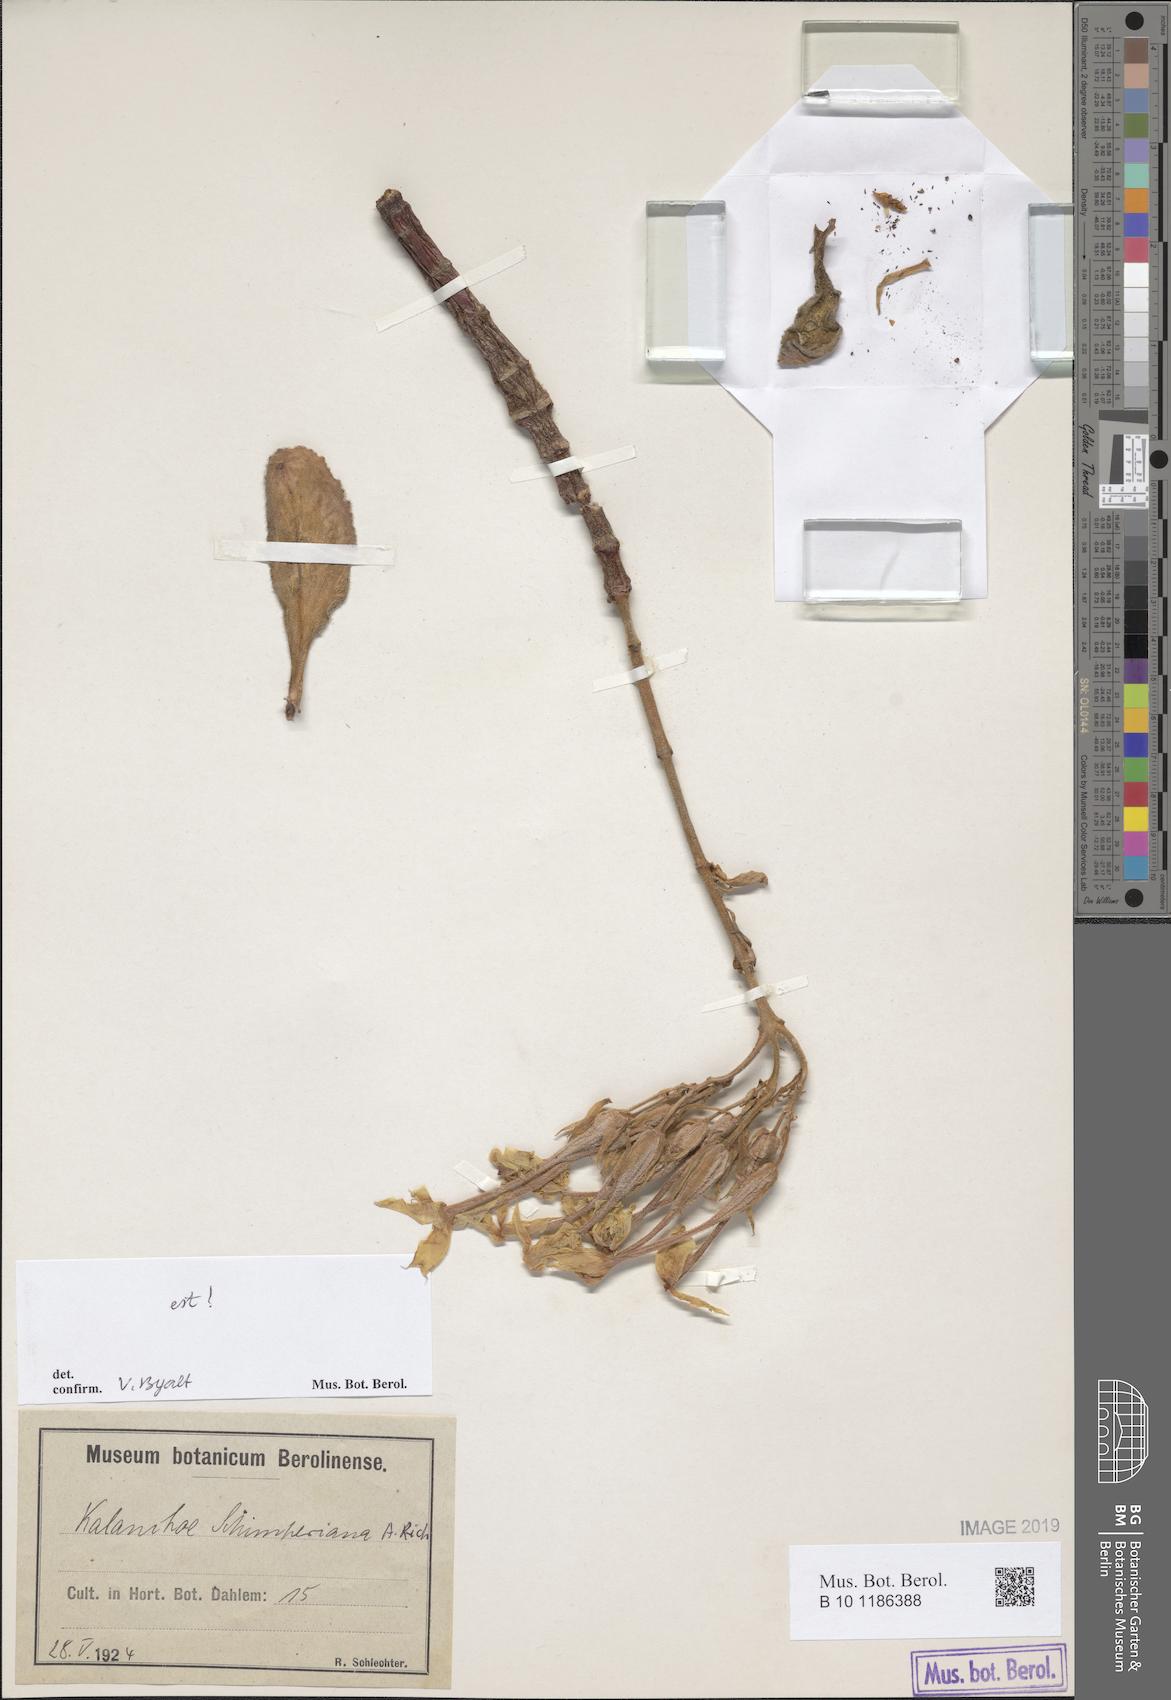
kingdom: Plantae
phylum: Tracheophyta
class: Magnoliopsida
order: Saxifragales
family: Crassulaceae
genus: Kalanchoe
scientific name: Kalanchoe schimperiana
